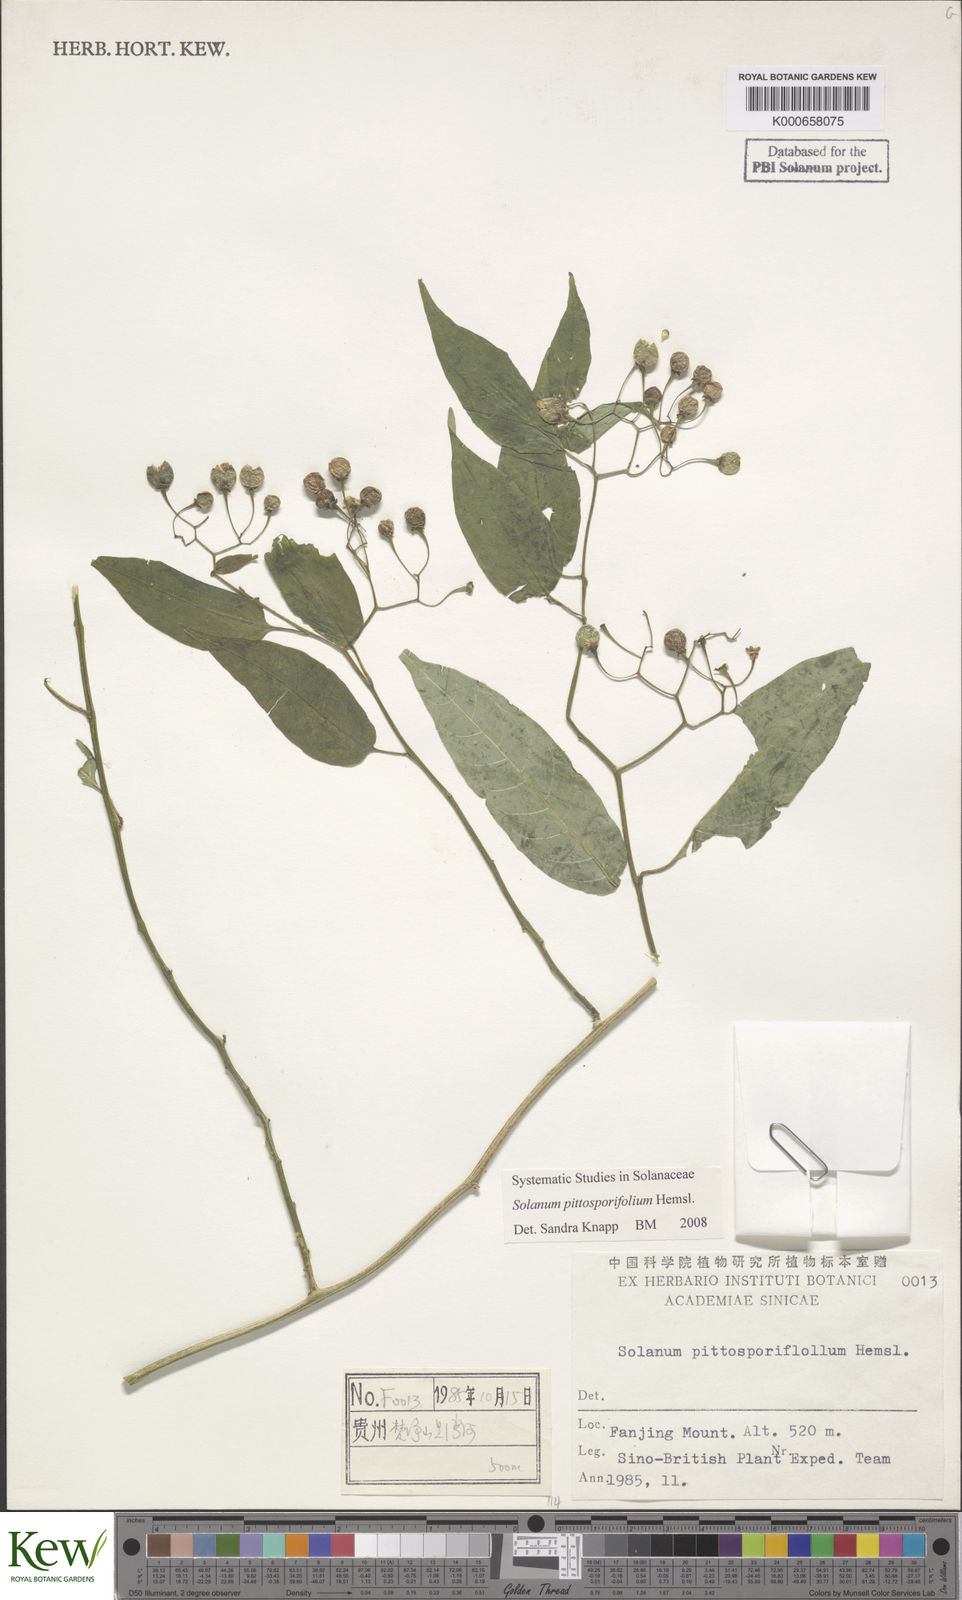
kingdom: Plantae
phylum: Tracheophyta
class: Magnoliopsida
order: Solanales
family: Solanaceae
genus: Solanum
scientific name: Solanum pittosporifolium
